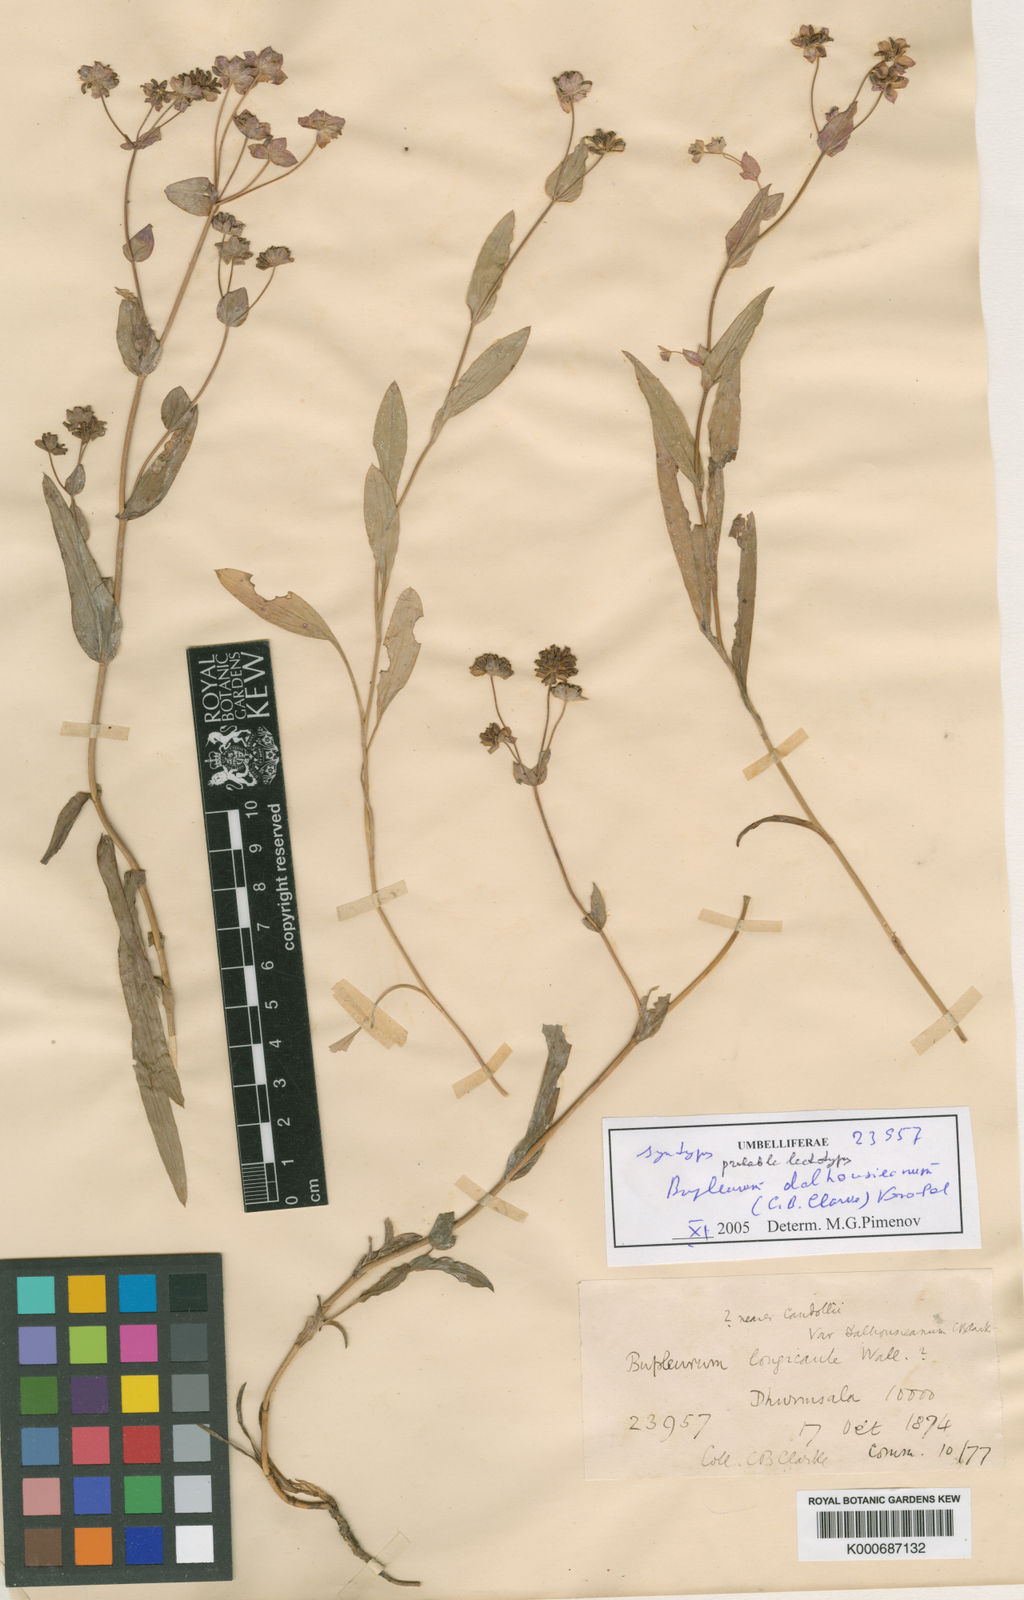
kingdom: Plantae
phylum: Tracheophyta
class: Magnoliopsida
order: Apiales
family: Apiaceae
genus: Bupleurum
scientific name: Bupleurum dalhousieanum
